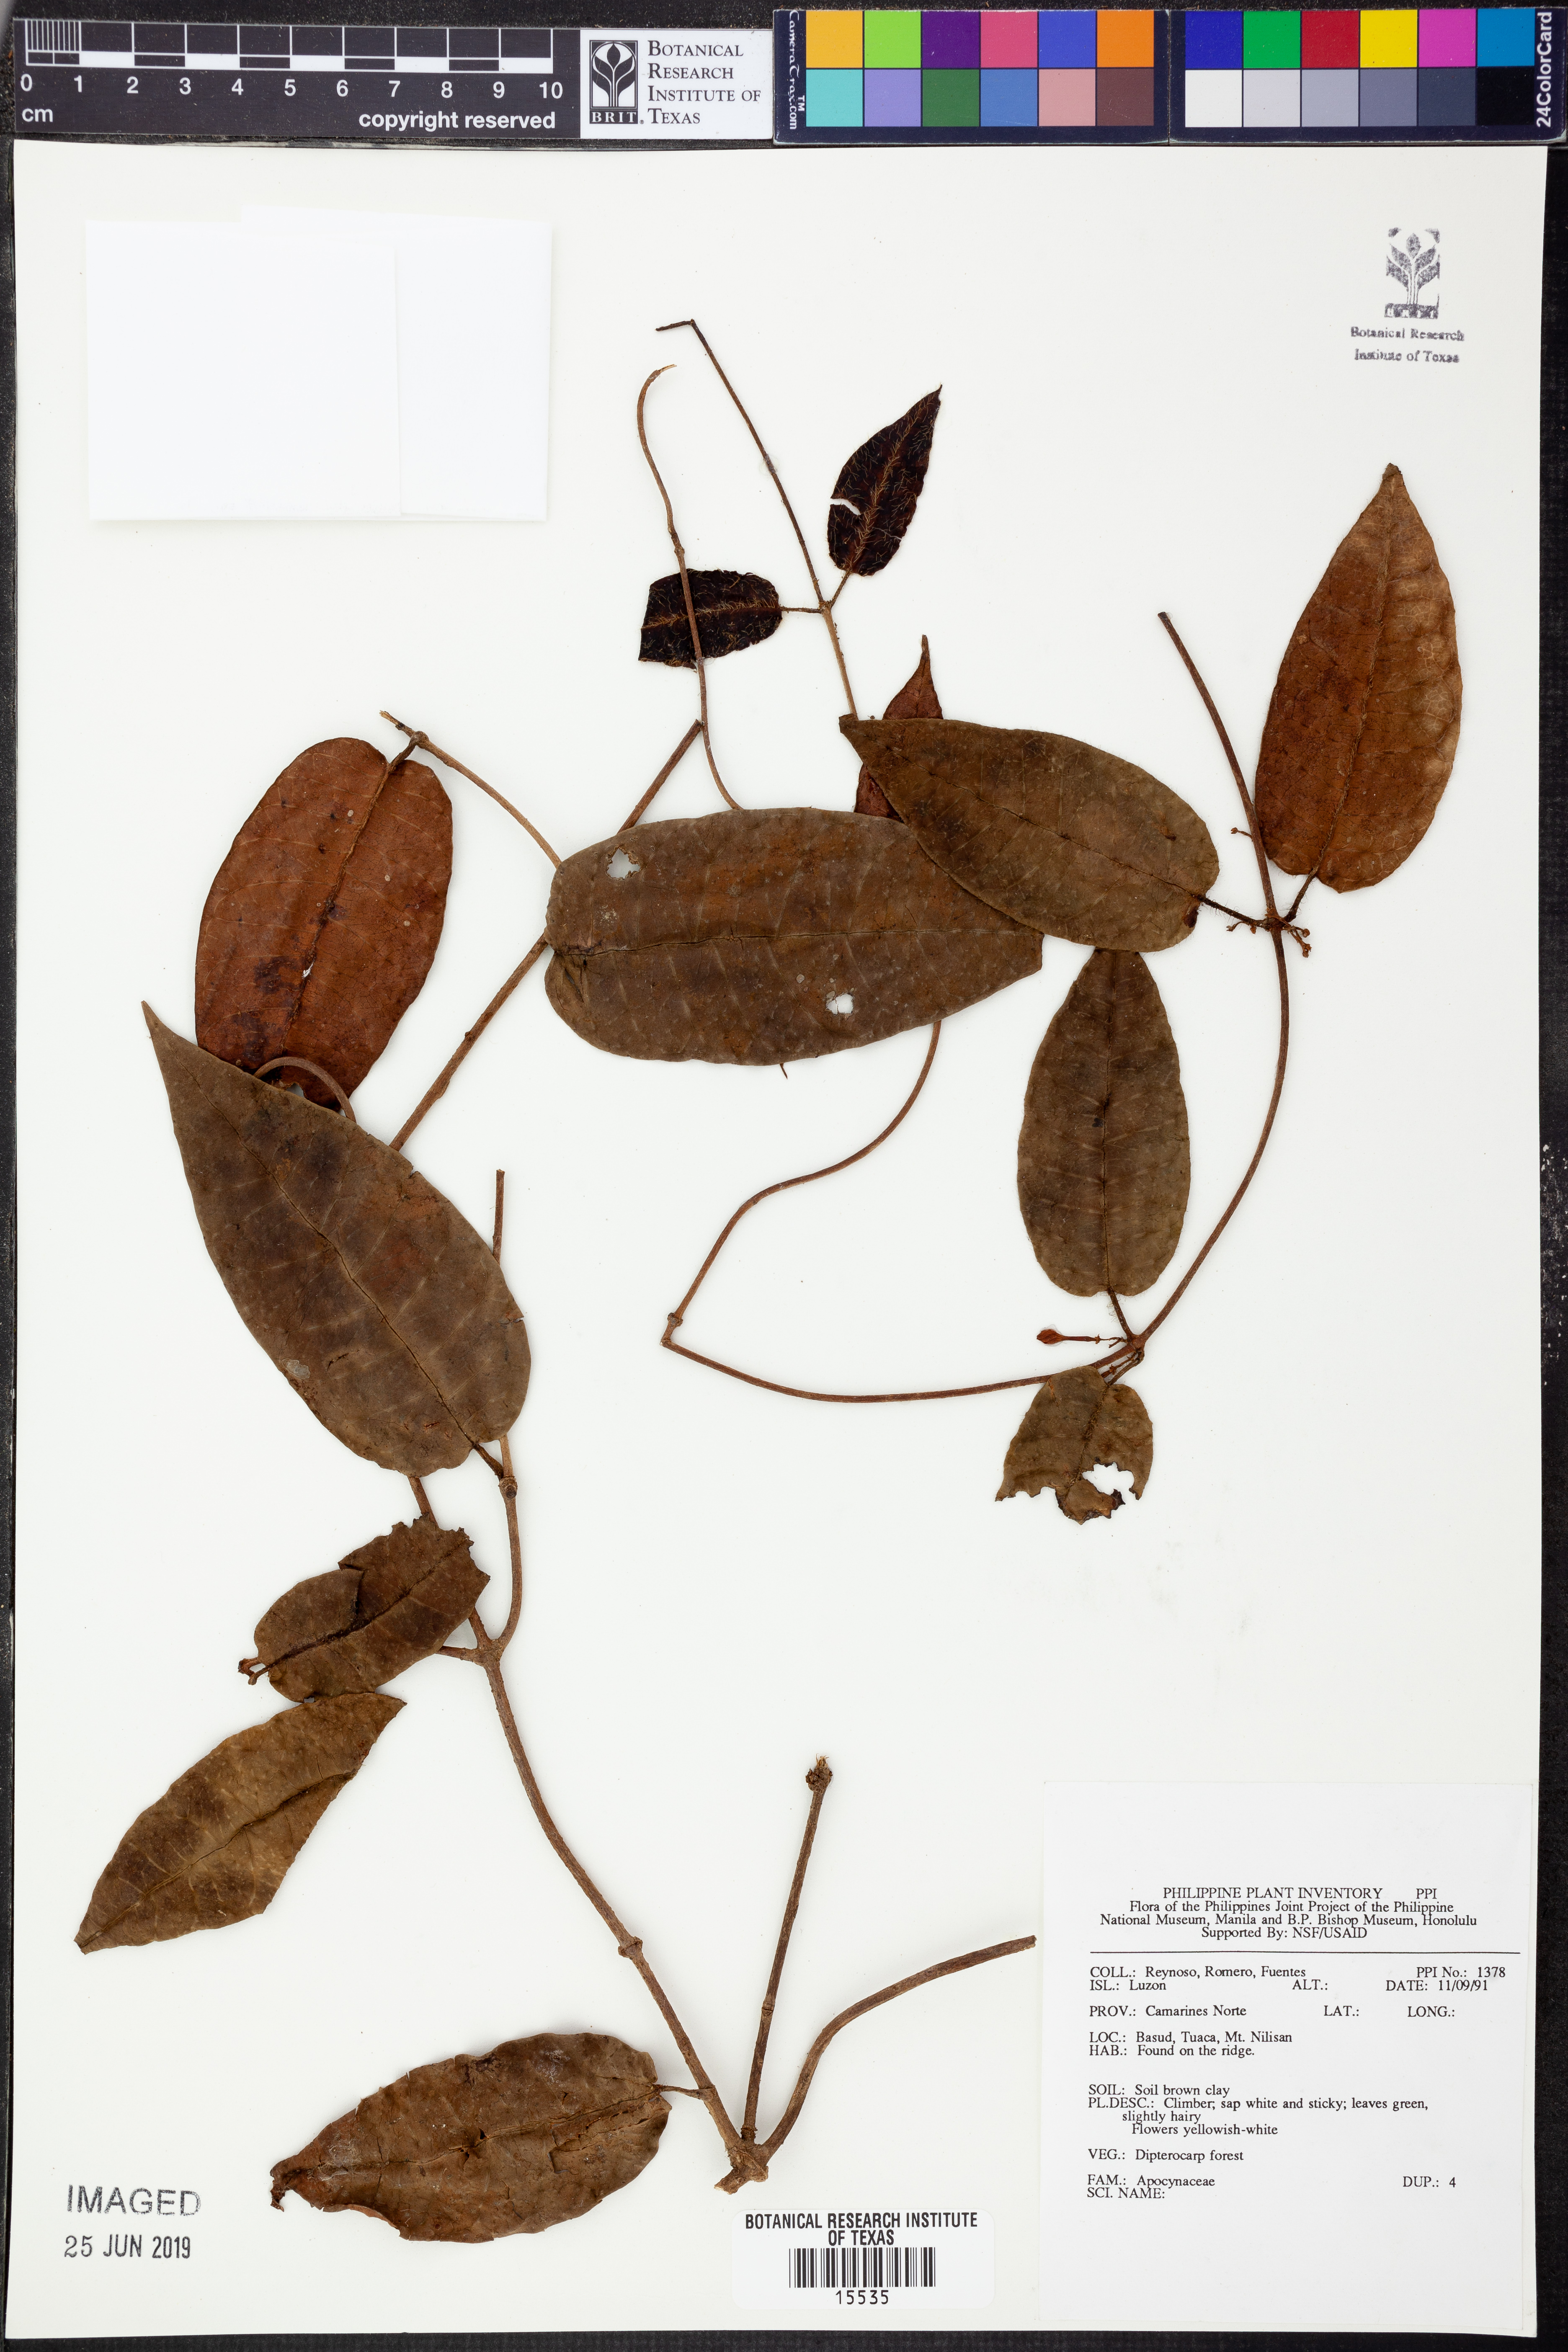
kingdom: Plantae
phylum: Tracheophyta
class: Magnoliopsida
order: Gentianales
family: Apocynaceae
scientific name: Apocynaceae
